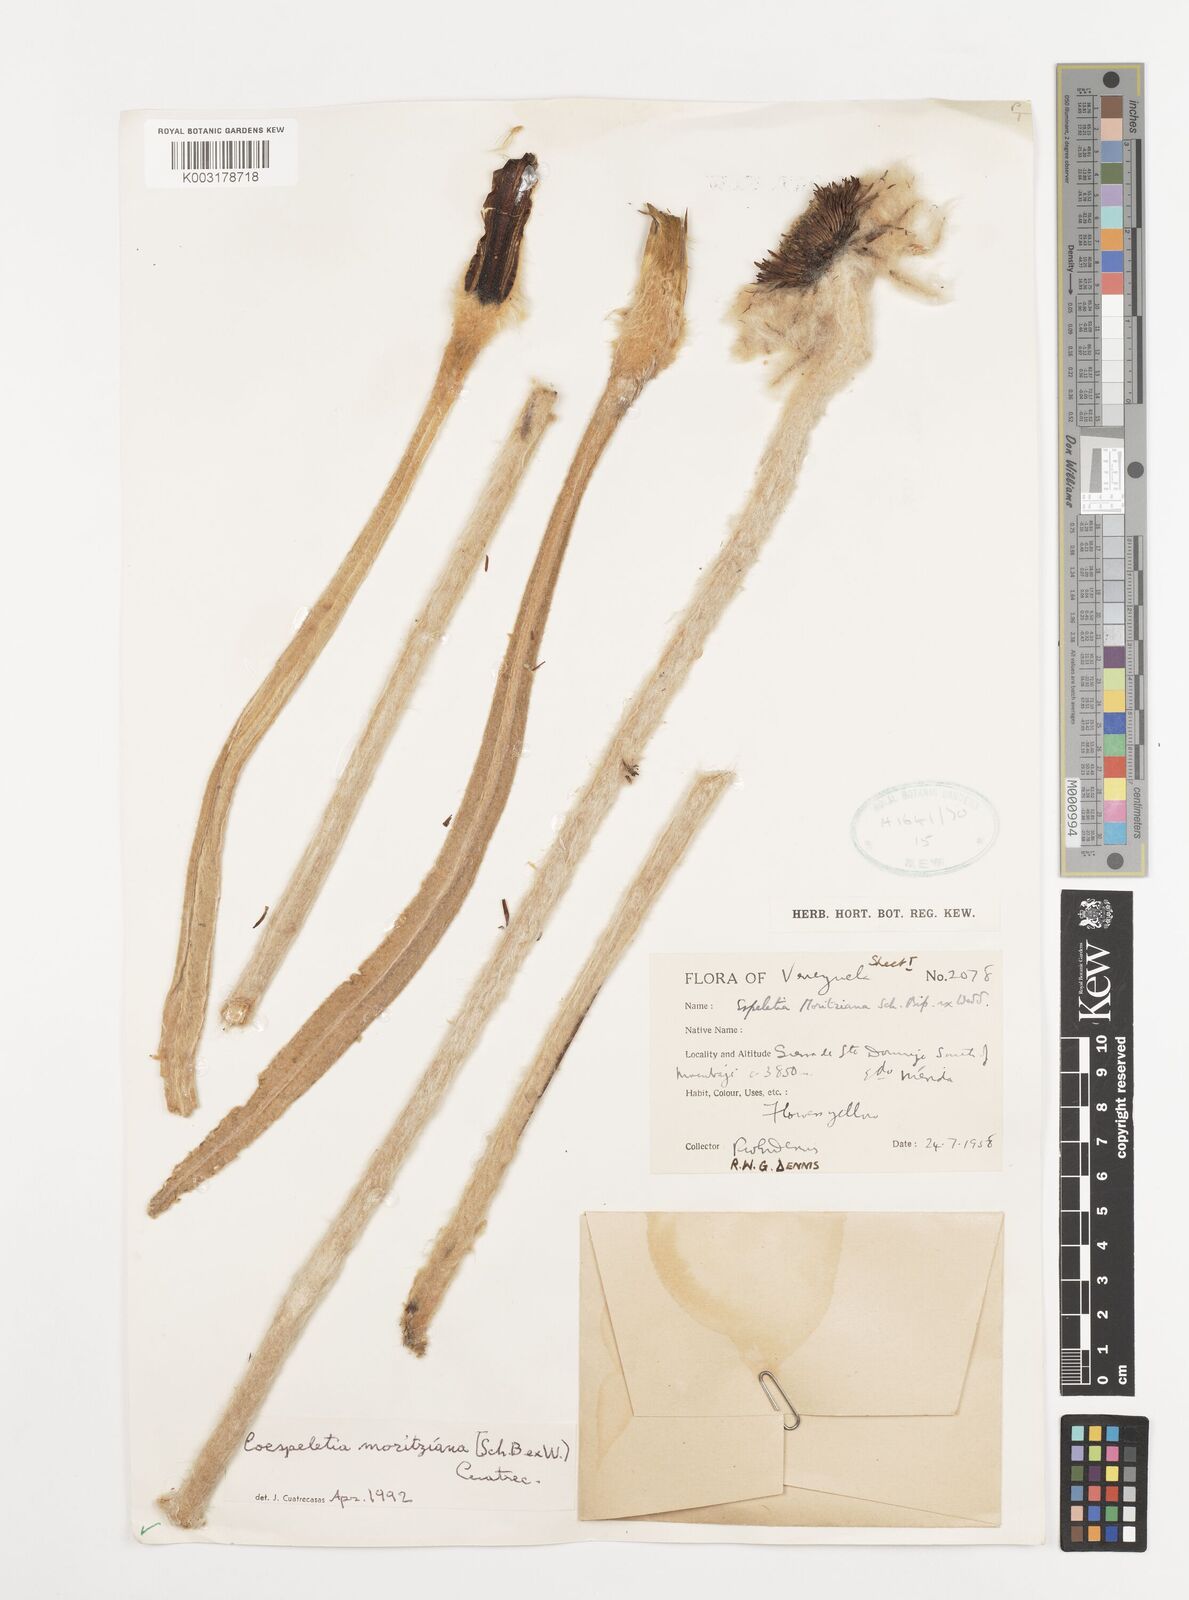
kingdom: Plantae
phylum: Tracheophyta
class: Magnoliopsida
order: Asterales
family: Asteraceae
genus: Espeletia
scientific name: Espeletia moritziana
